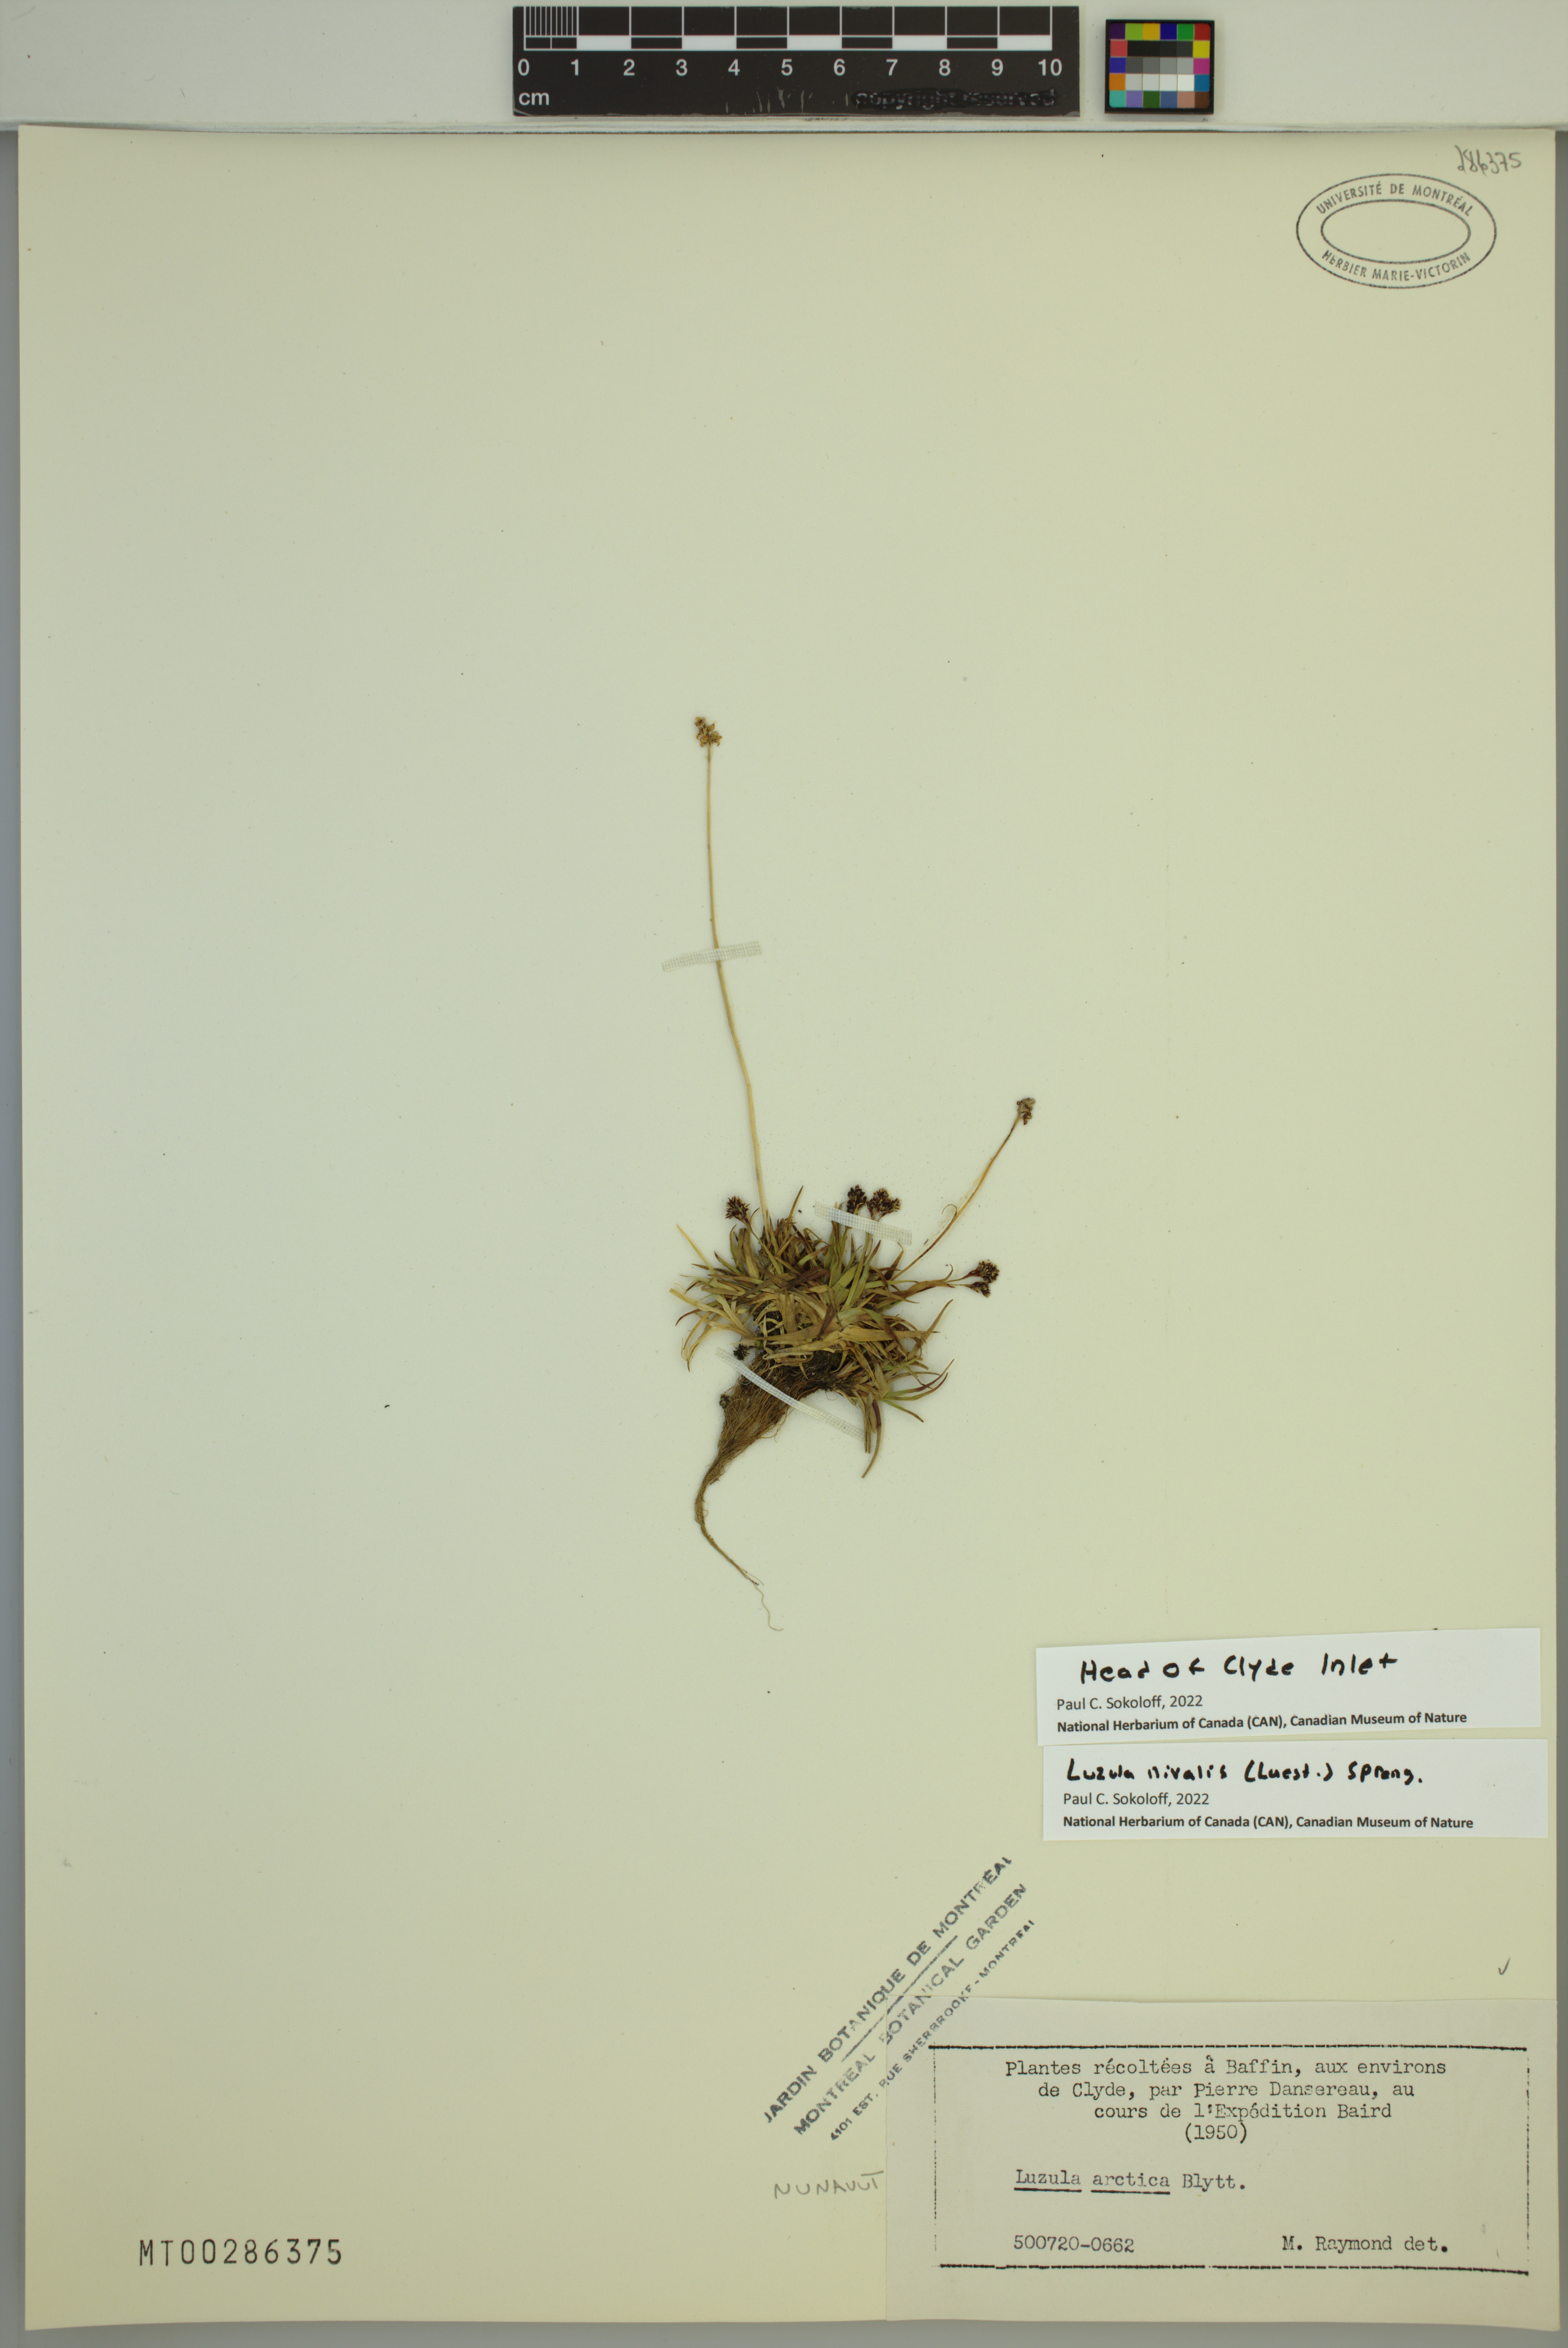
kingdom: Plantae
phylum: Tracheophyta
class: Liliopsida
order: Poales
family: Juncaceae
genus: Luzula
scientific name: Luzula nivalis
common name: Arctic woodrush
